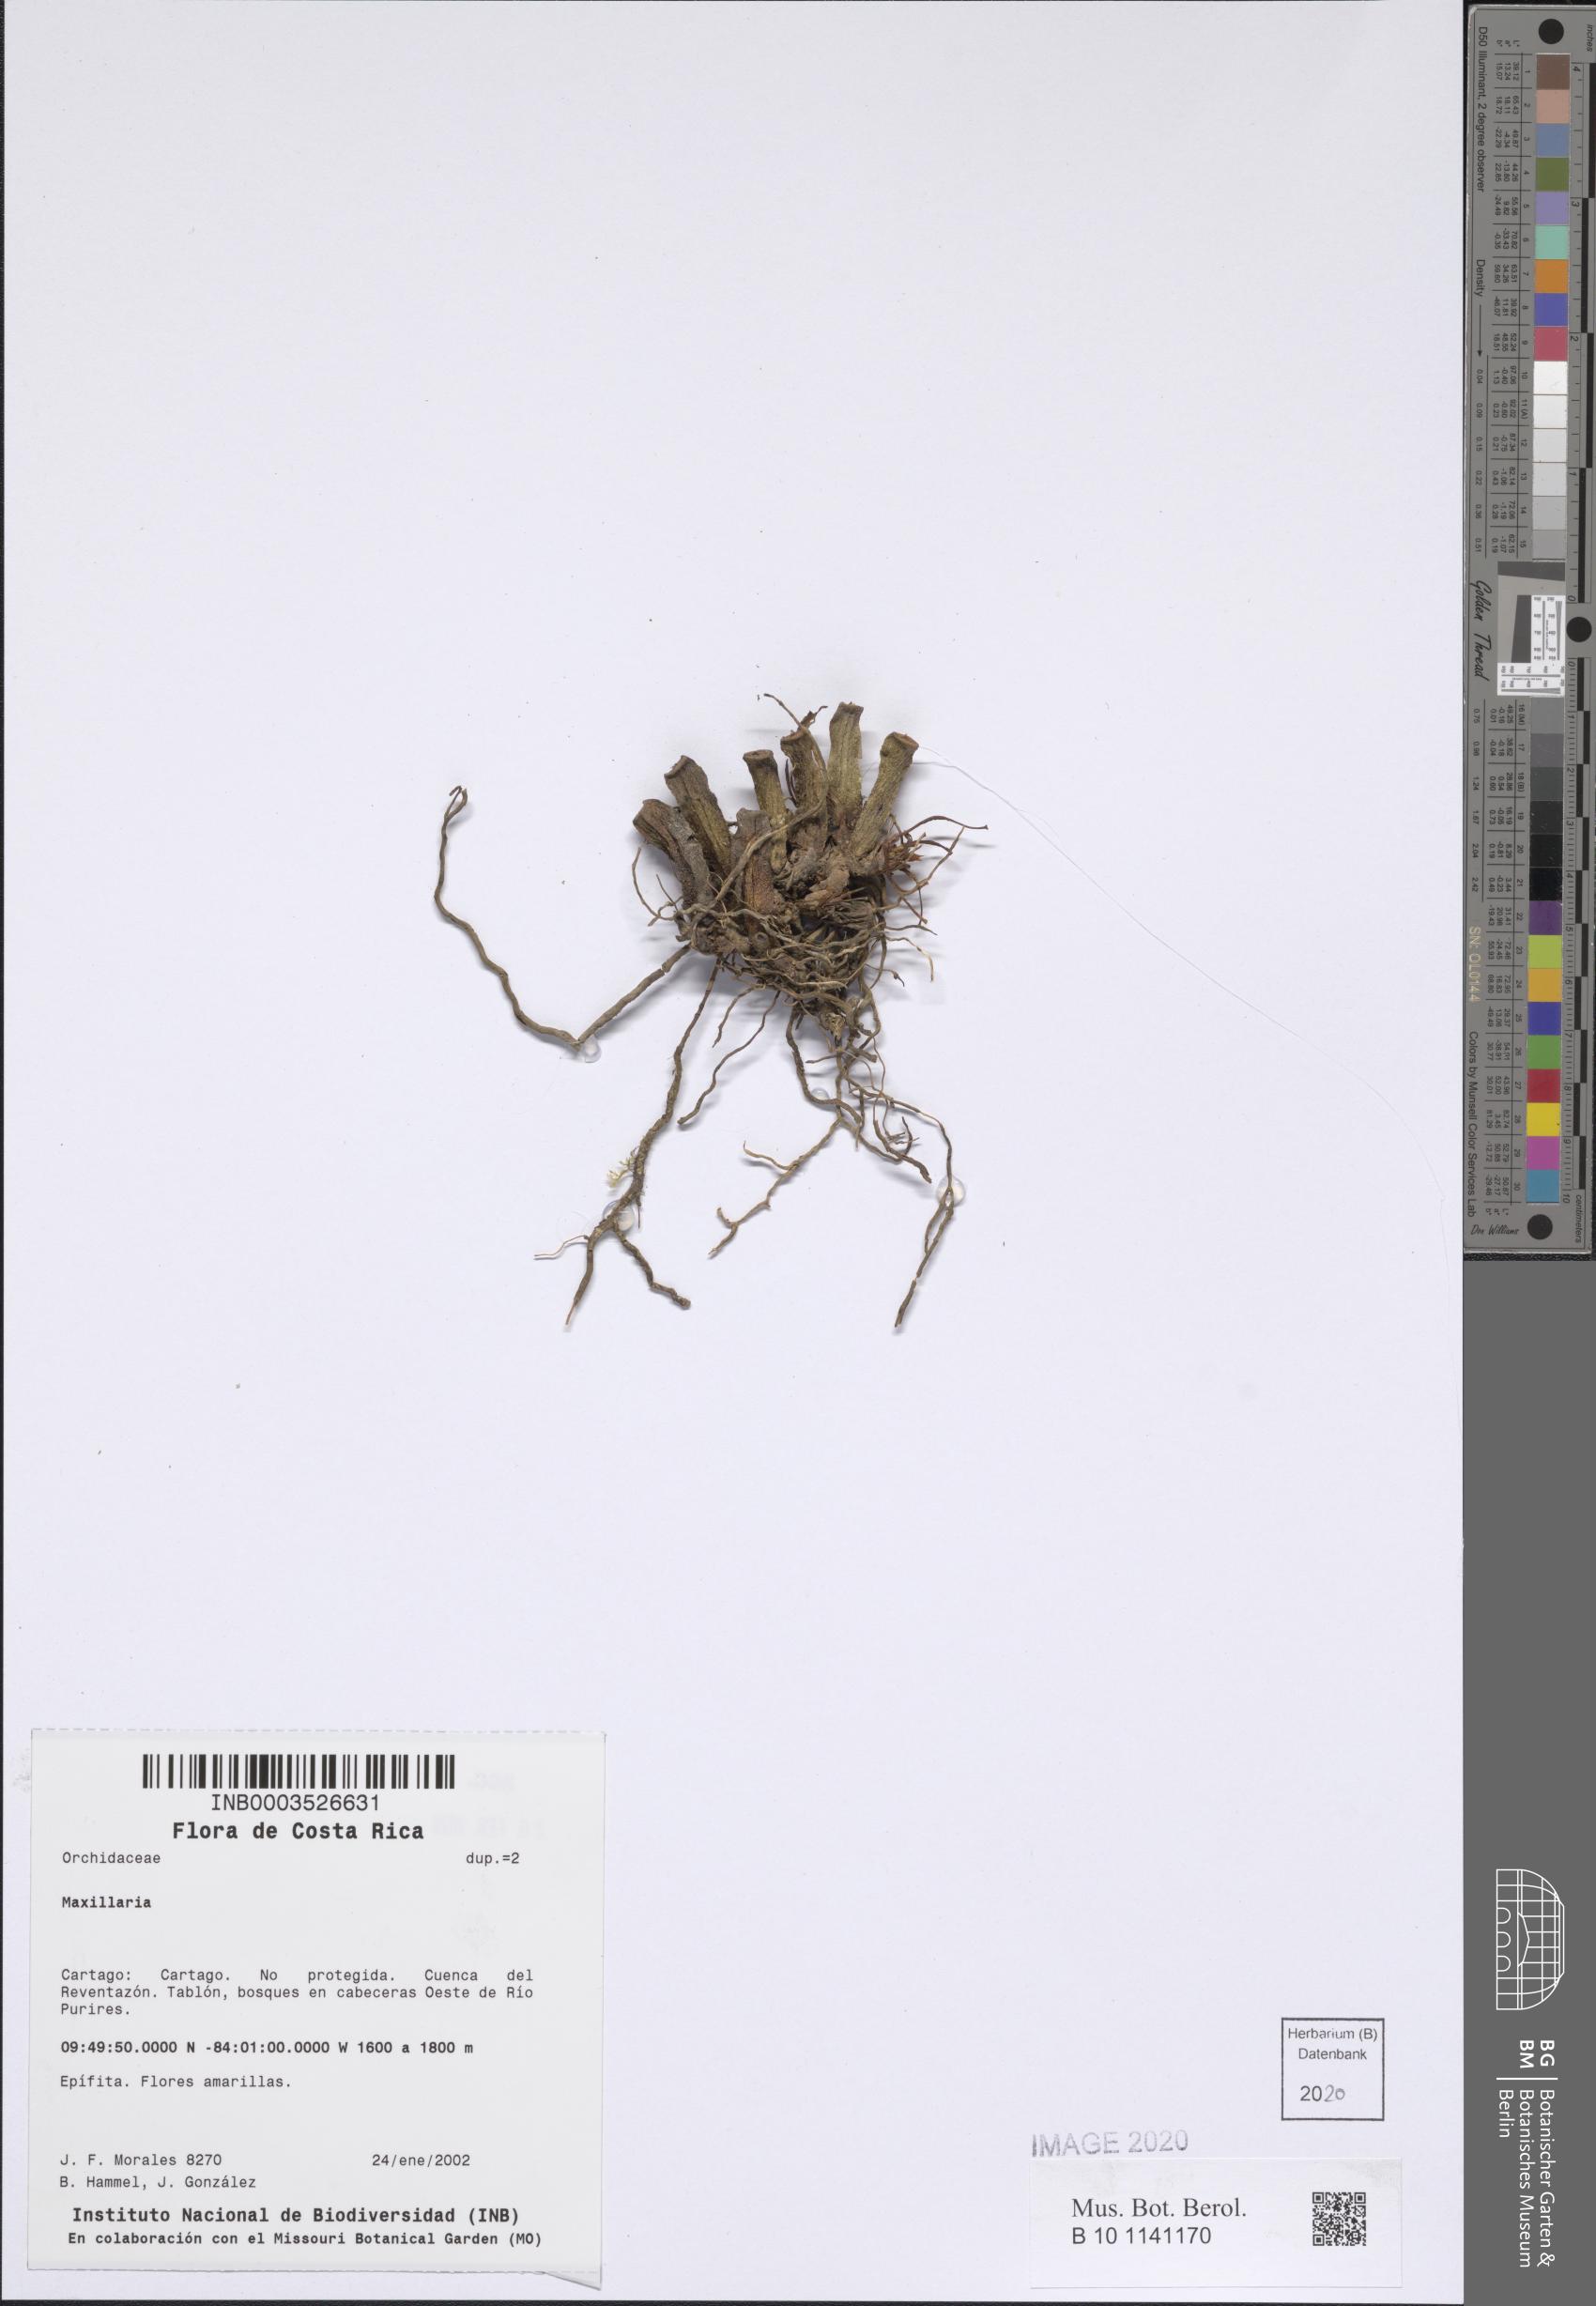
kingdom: Plantae
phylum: Tracheophyta
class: Liliopsida
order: Asparagales
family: Orchidaceae
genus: Maxillaria
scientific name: Maxillaria
